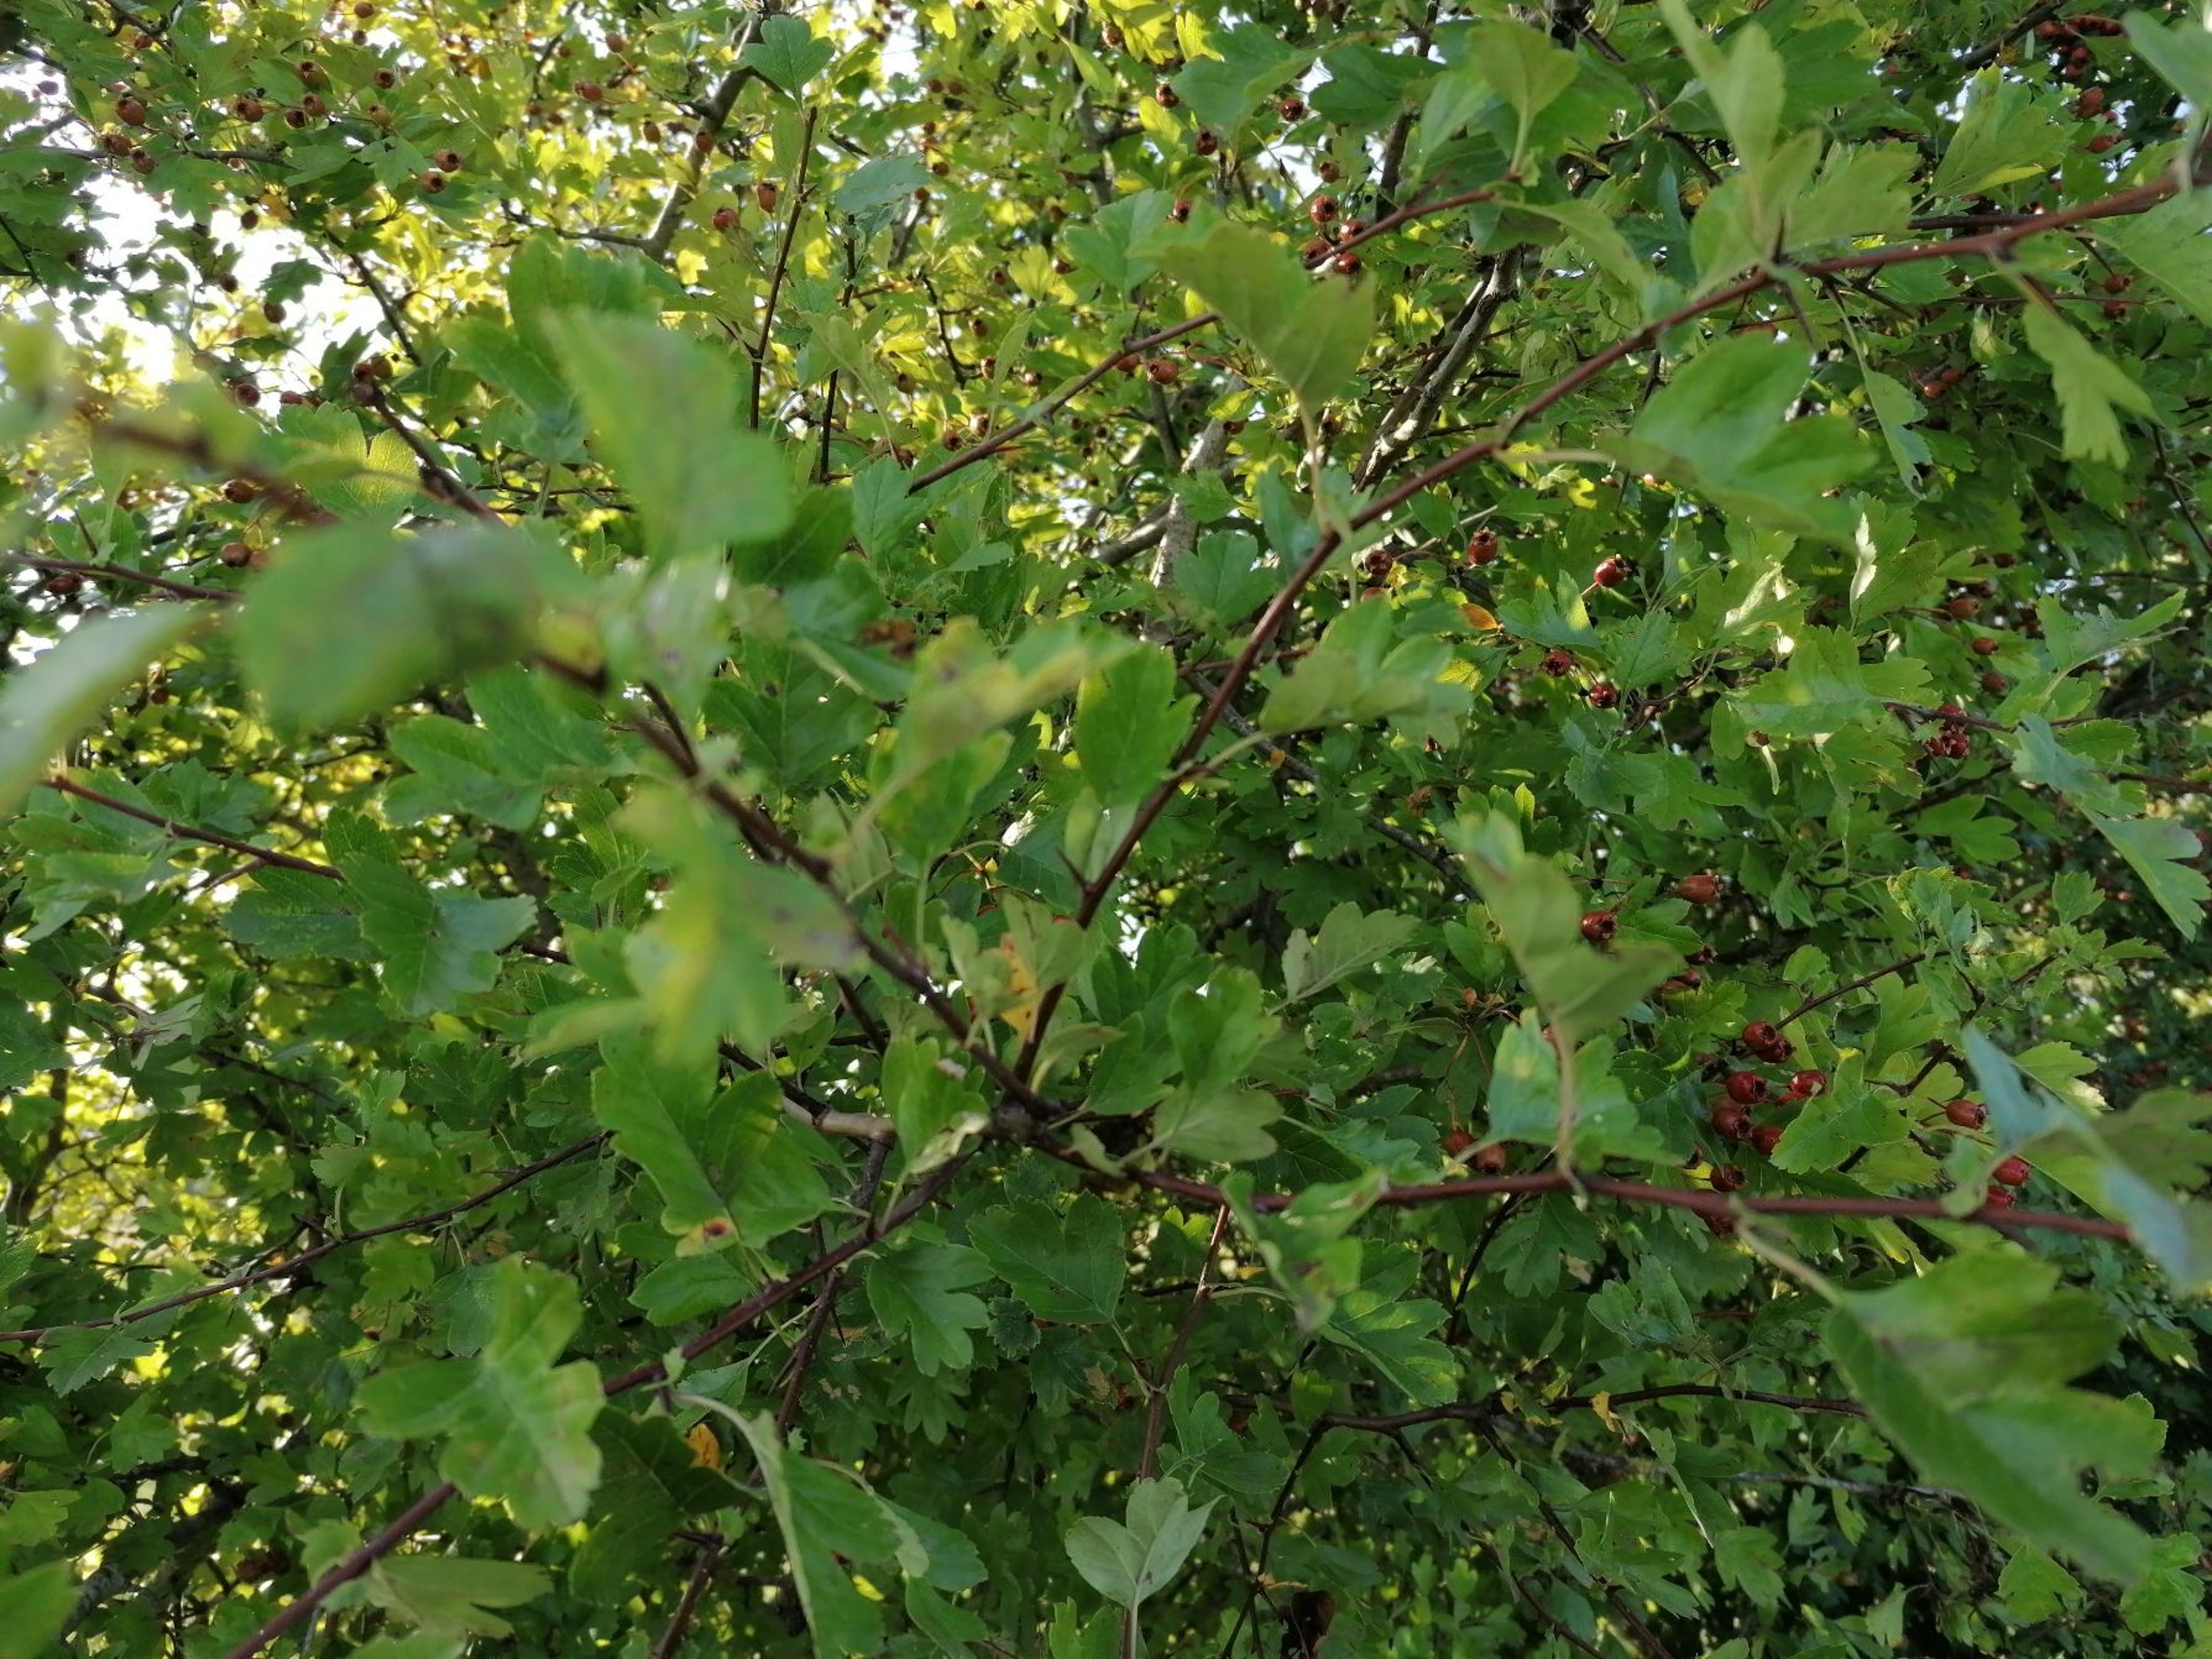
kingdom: Plantae
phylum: Tracheophyta
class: Magnoliopsida
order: Rosales
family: Rosaceae
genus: Crataegus
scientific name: Crataegus monogyna
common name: Engriflet hvidtjørn
